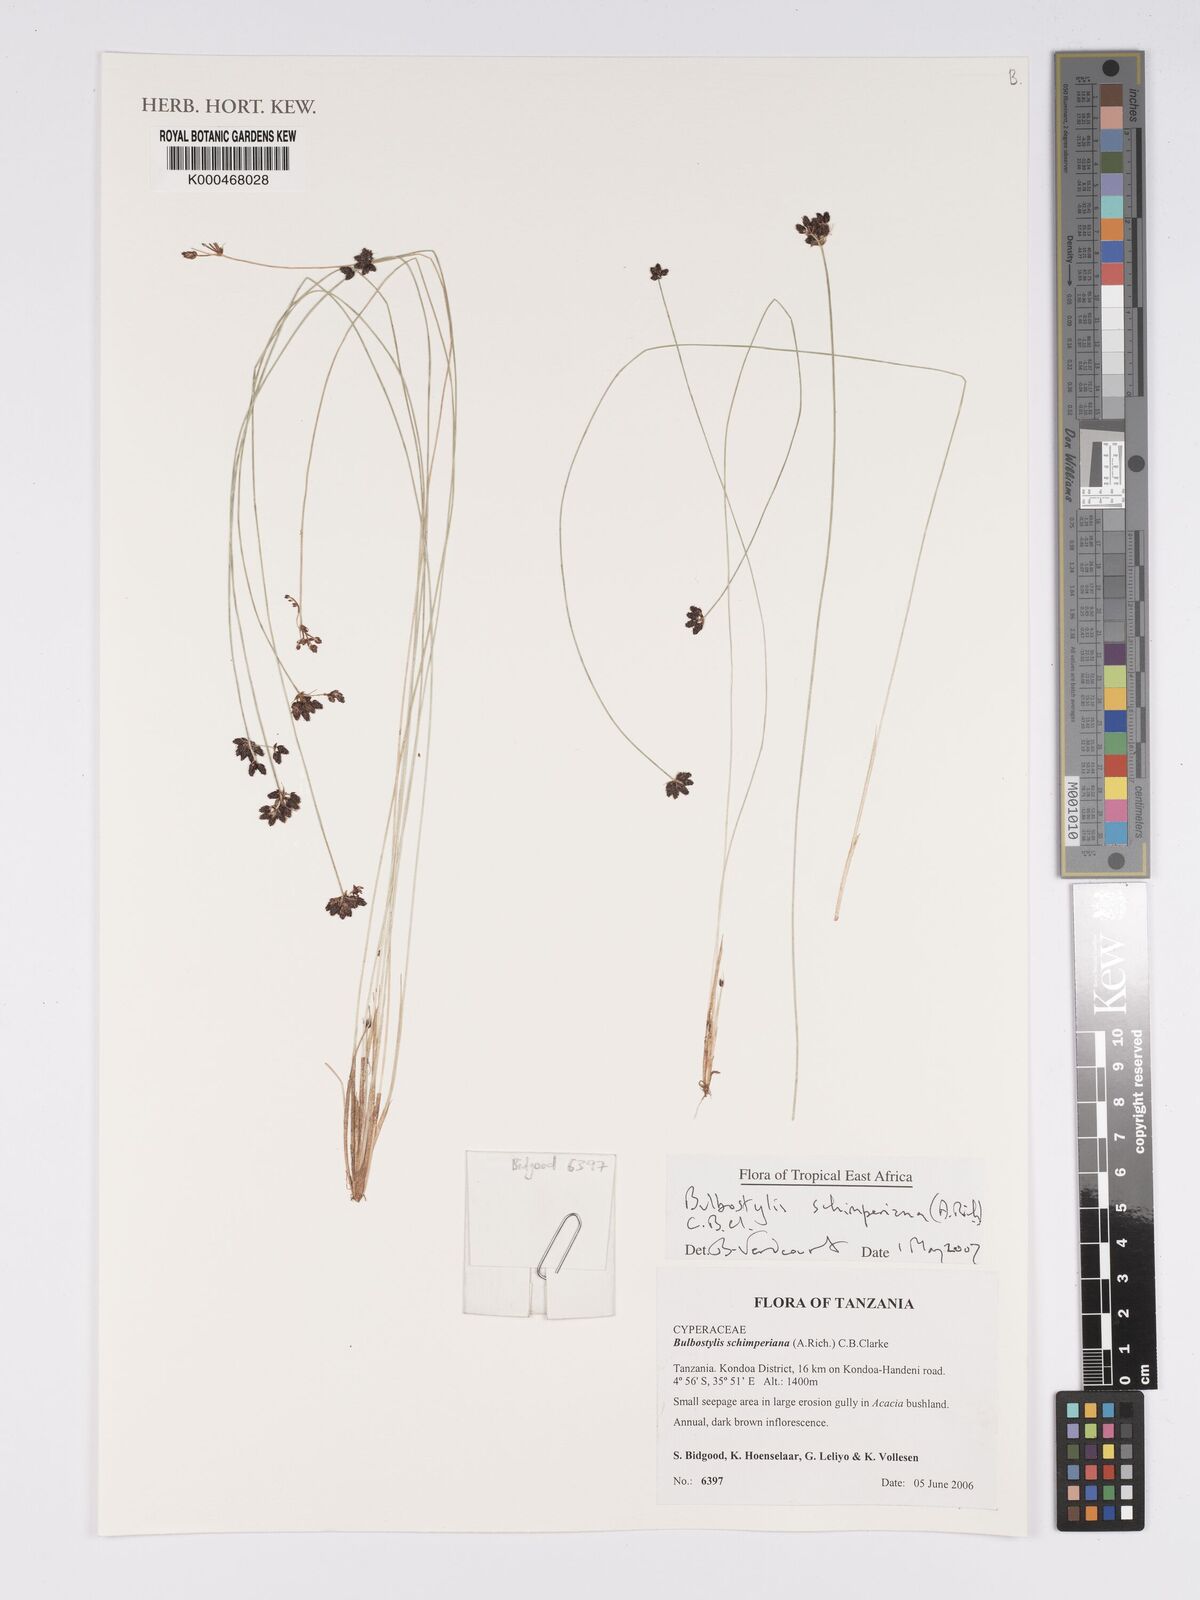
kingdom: Plantae
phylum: Tracheophyta
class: Liliopsida
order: Poales
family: Cyperaceae
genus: Bulbostylis
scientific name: Bulbostylis schimperiana
